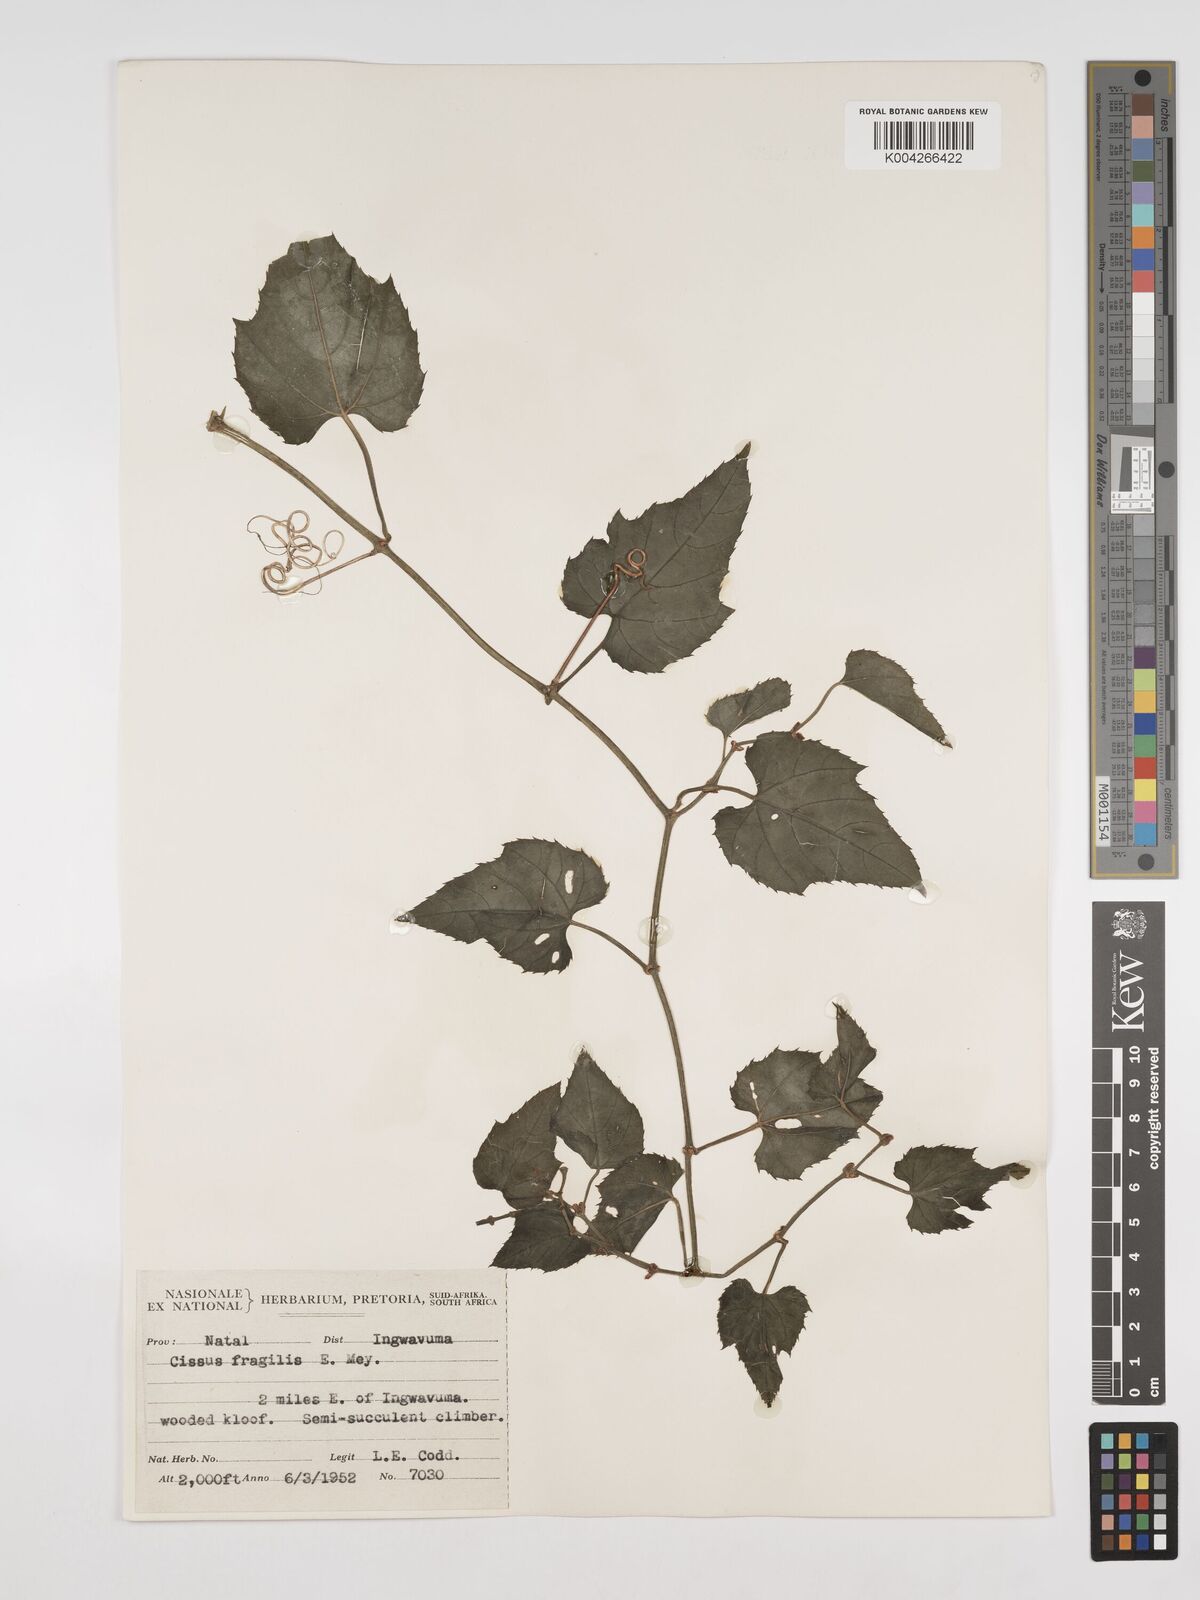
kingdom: Plantae
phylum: Tracheophyta
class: Magnoliopsida
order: Vitales
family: Vitaceae
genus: Cissus
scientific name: Cissus fragilis
